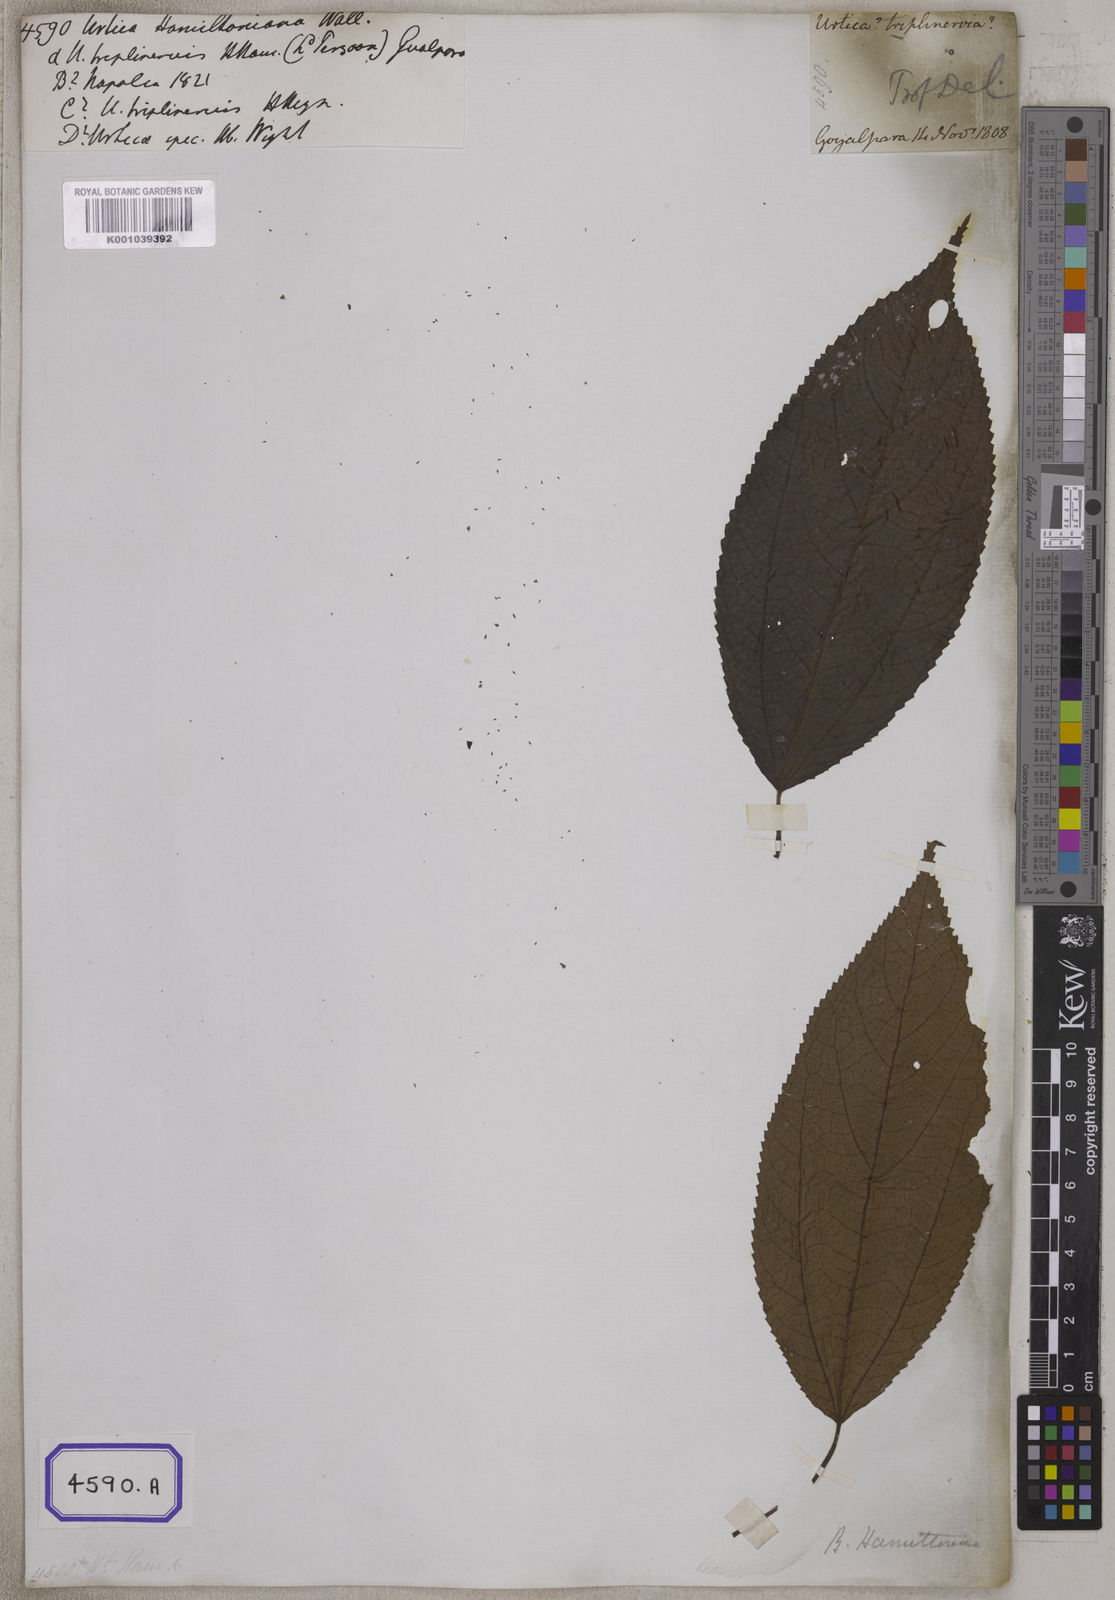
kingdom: Plantae
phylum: Tracheophyta
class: Magnoliopsida
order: Rosales
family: Urticaceae
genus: Boehmeria
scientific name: Boehmeria hamiltoniana
